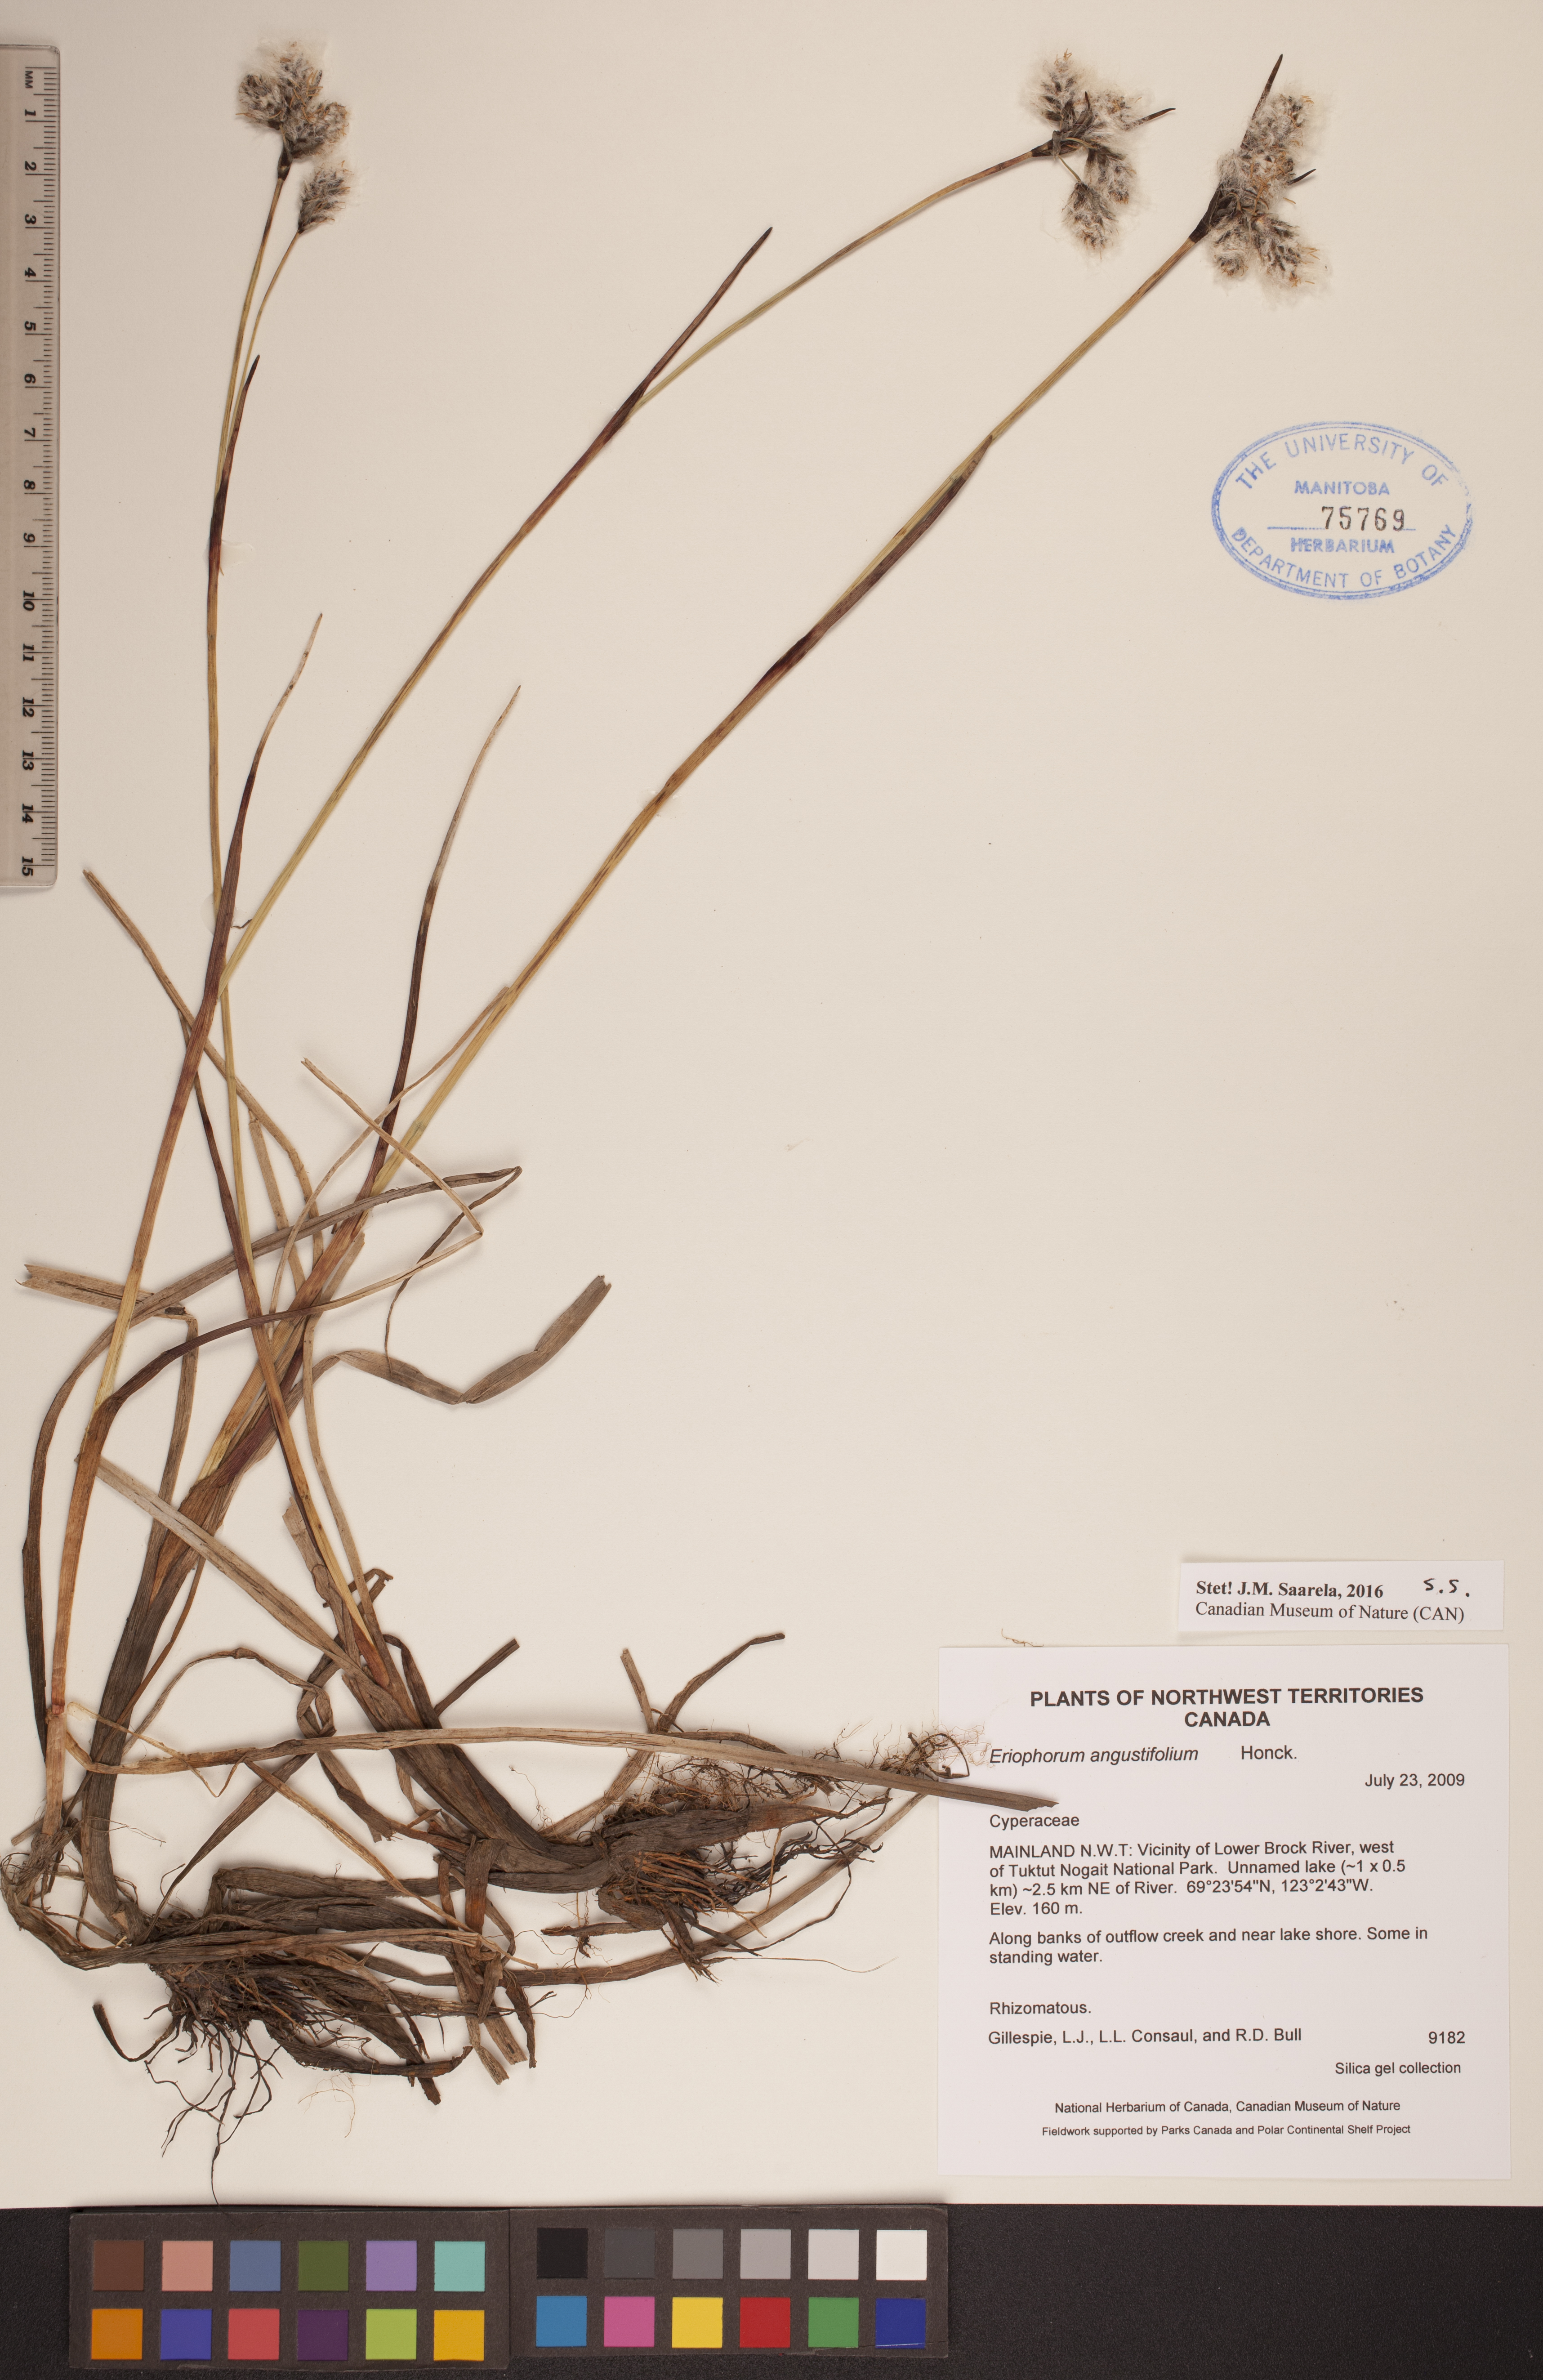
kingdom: Plantae
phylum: Tracheophyta
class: Liliopsida
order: Poales
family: Cyperaceae
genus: Eriophorum
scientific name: Eriophorum angustifolium
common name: Common cottongrass
